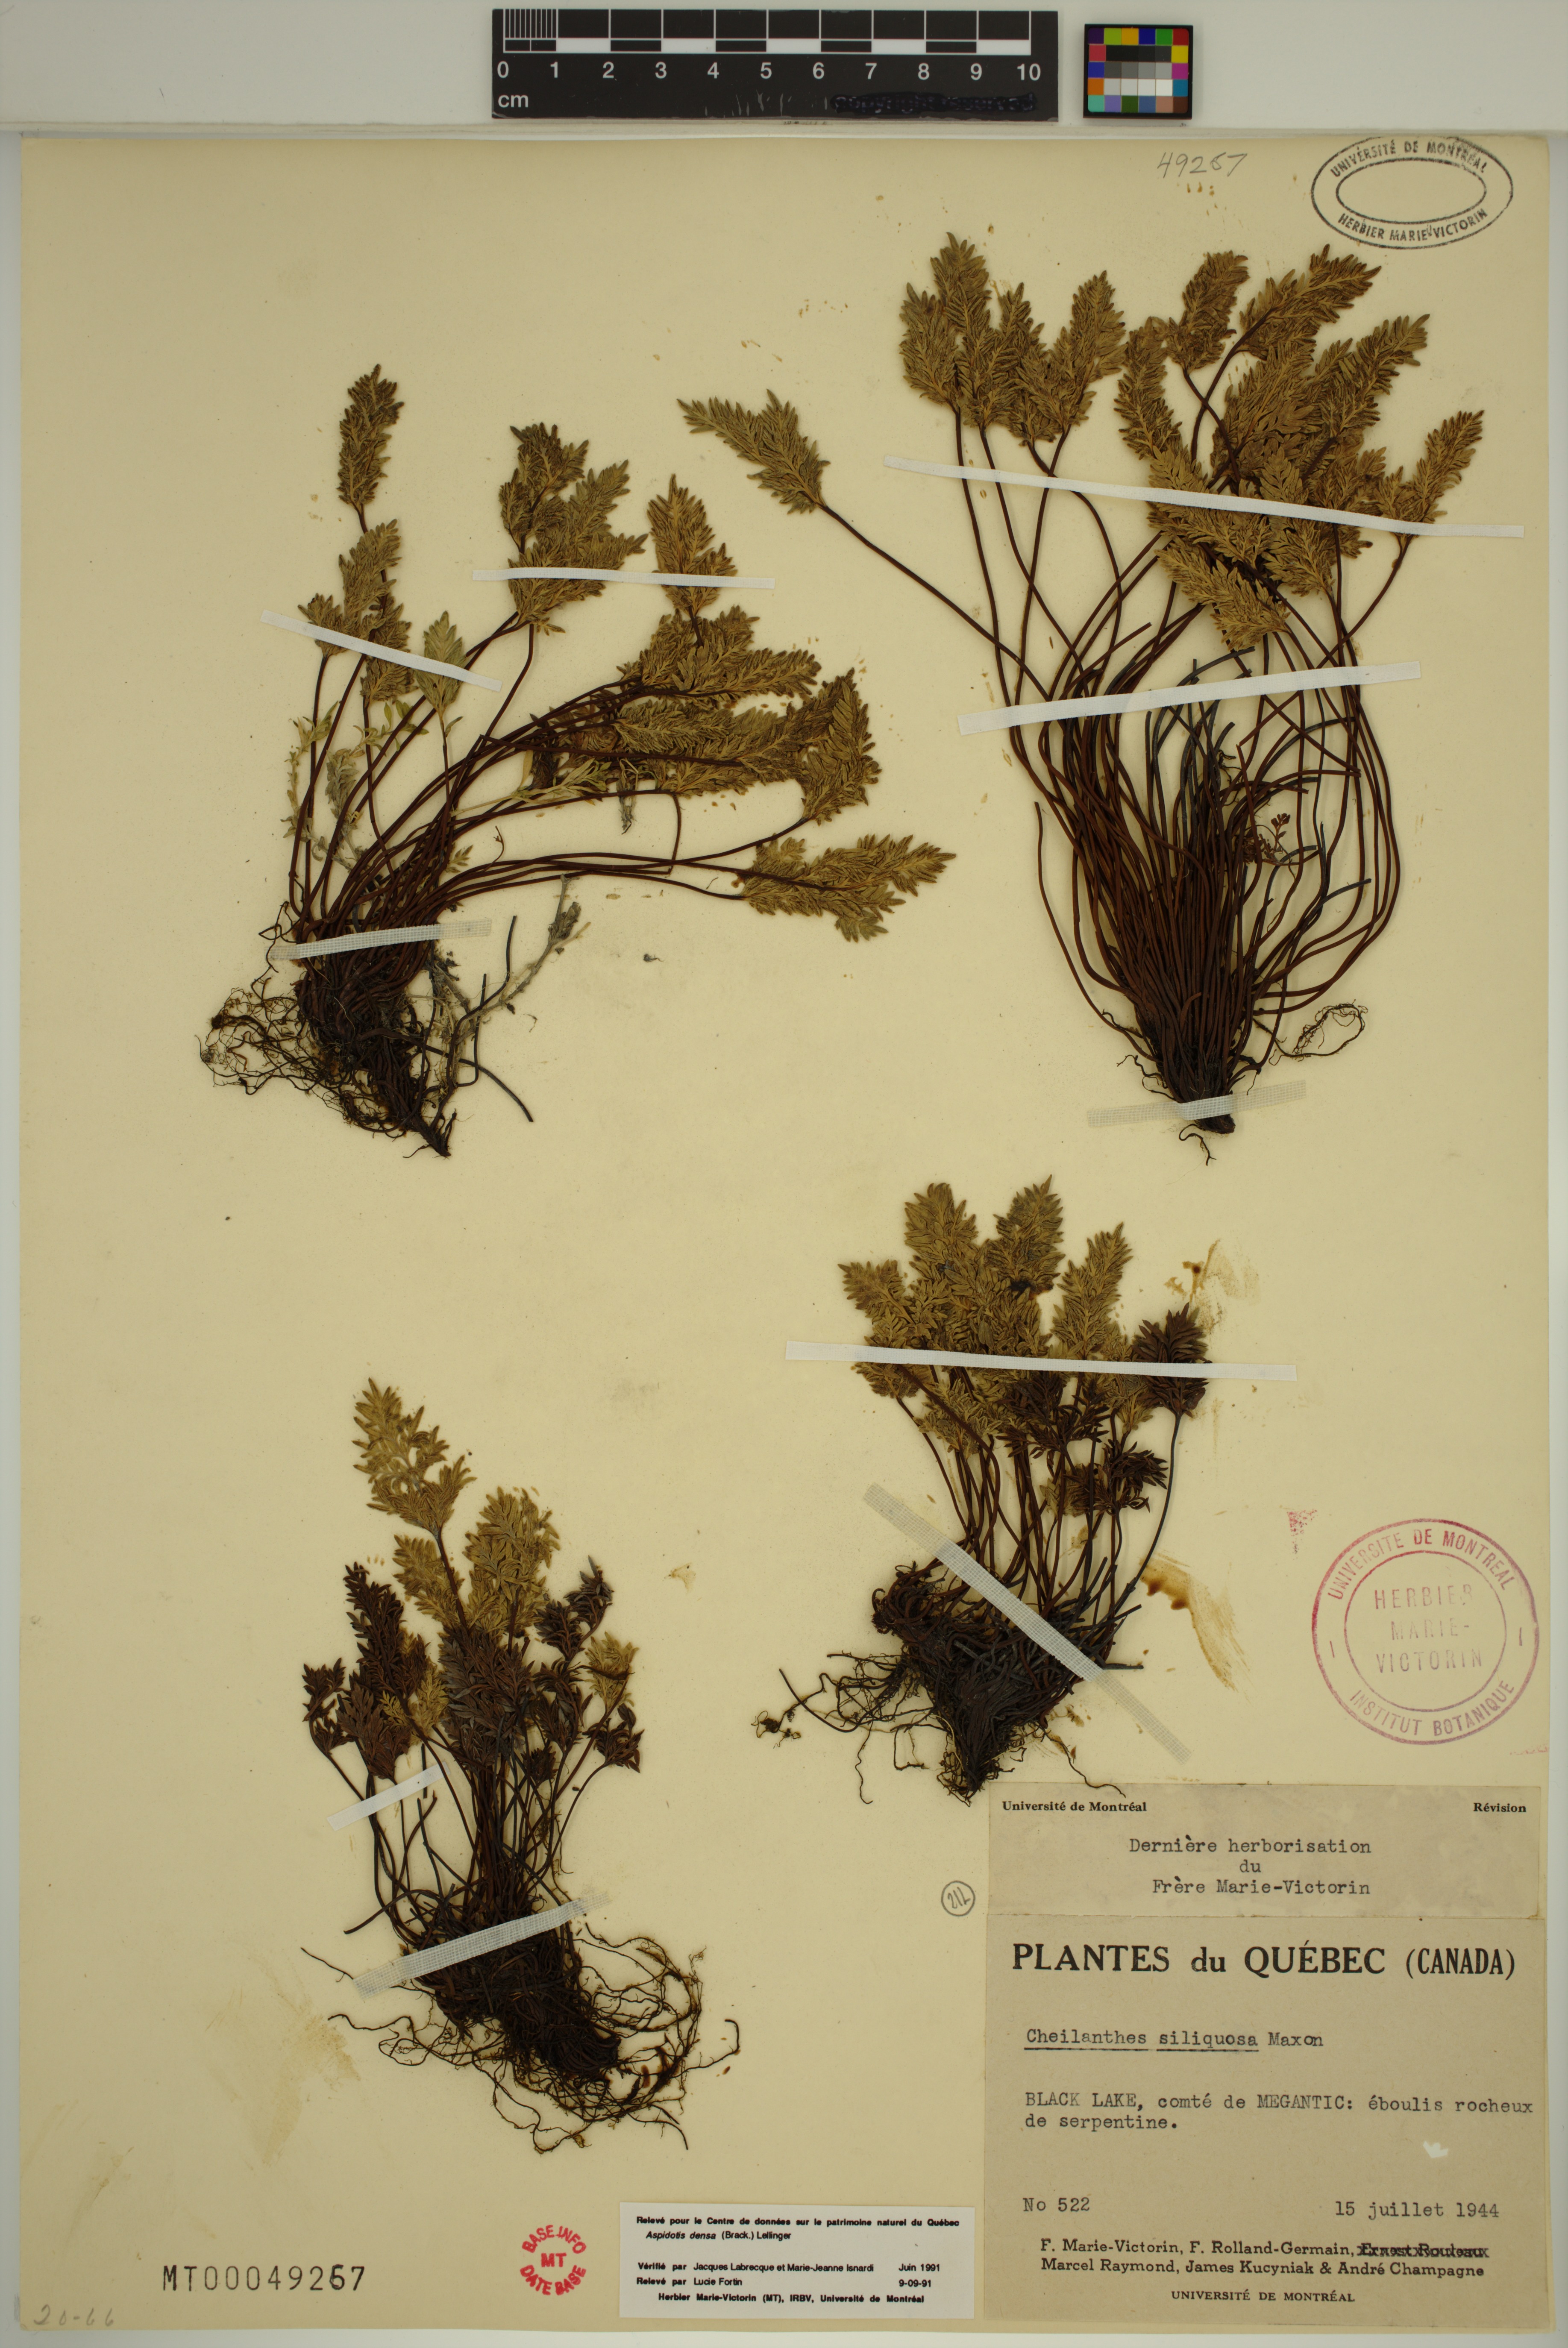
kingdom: Plantae
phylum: Tracheophyta
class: Polypodiopsida
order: Polypodiales
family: Pteridaceae
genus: Aspidotis
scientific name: Aspidotis densa
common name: Indian's dream
